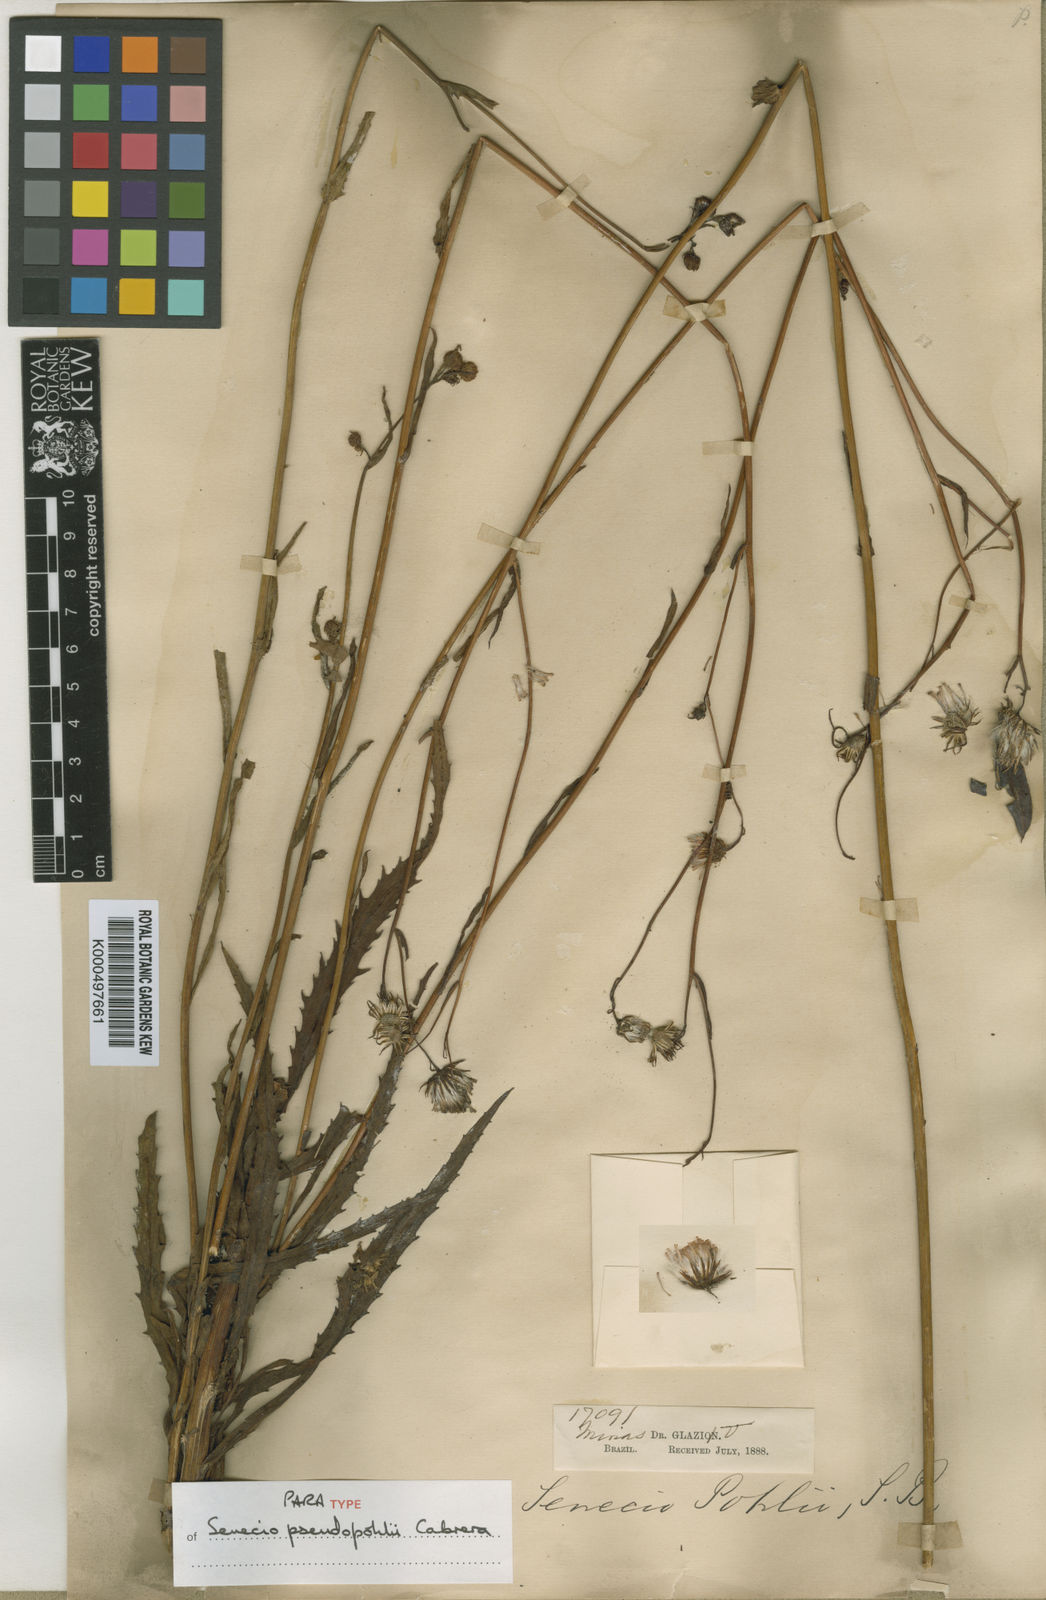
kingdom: Plantae
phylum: Tracheophyta
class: Magnoliopsida
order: Asterales
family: Asteraceae
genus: Senecio
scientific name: Senecio
